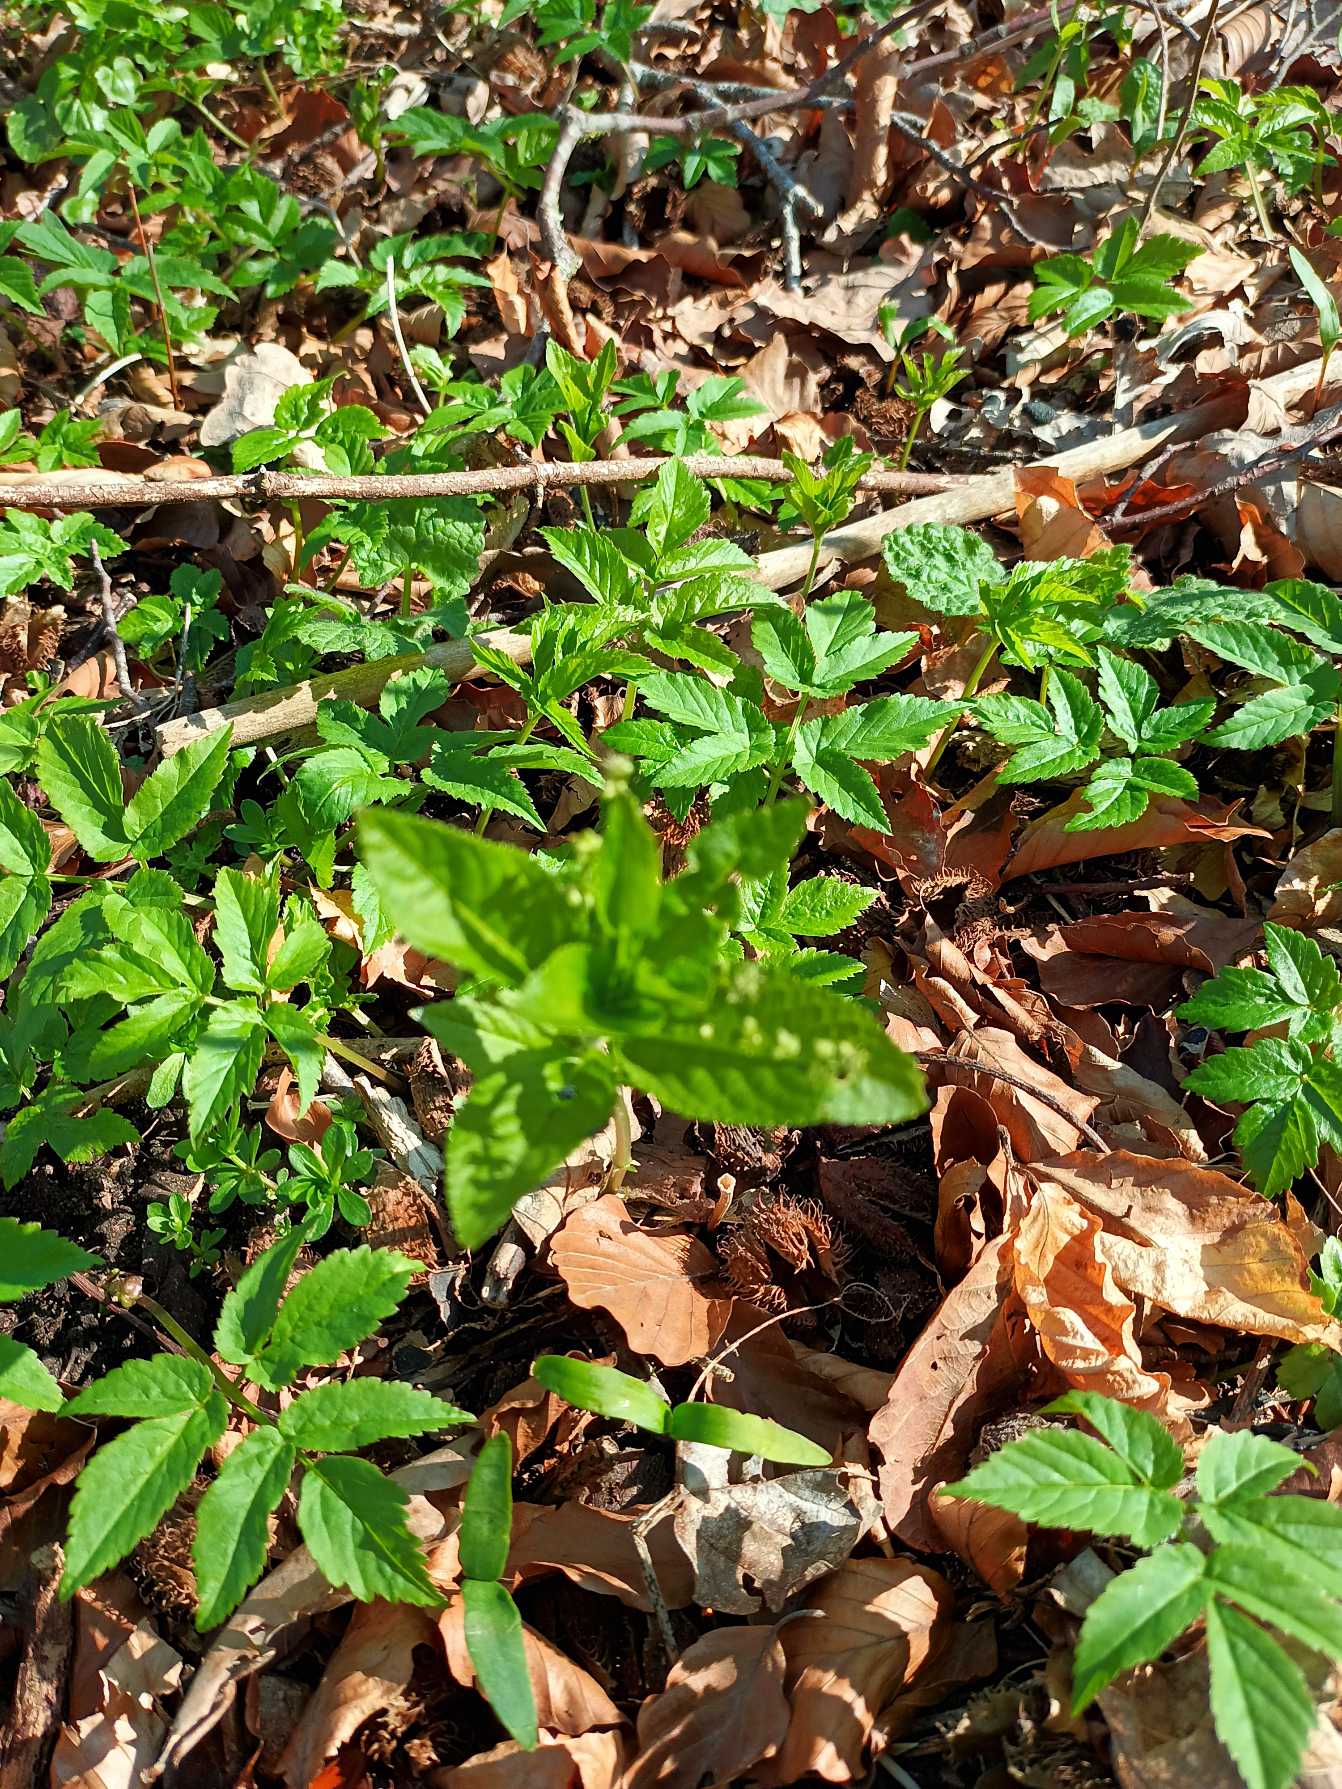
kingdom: Plantae
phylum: Tracheophyta
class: Magnoliopsida
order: Apiales
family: Apiaceae
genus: Aegopodium
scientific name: Aegopodium podagraria
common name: Skvalderkål
